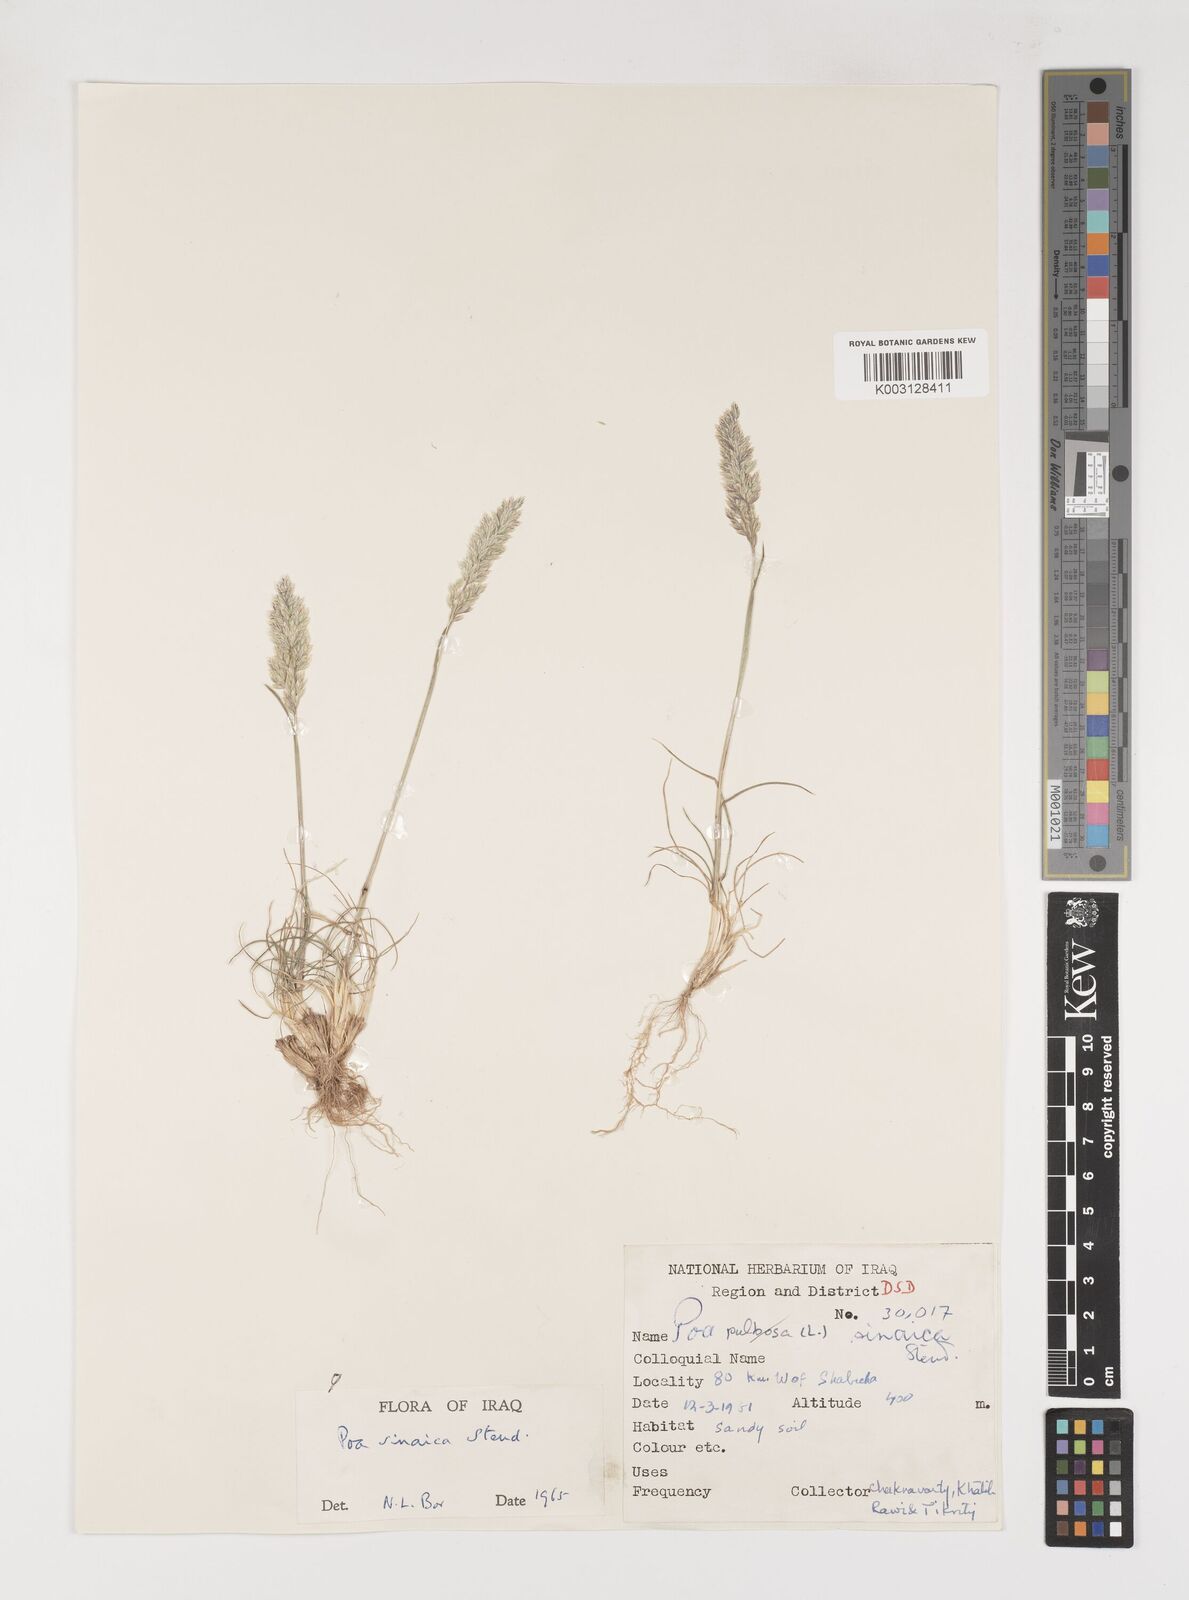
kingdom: Plantae
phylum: Tracheophyta
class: Liliopsida
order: Poales
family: Poaceae
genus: Poa
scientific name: Poa sinaica
